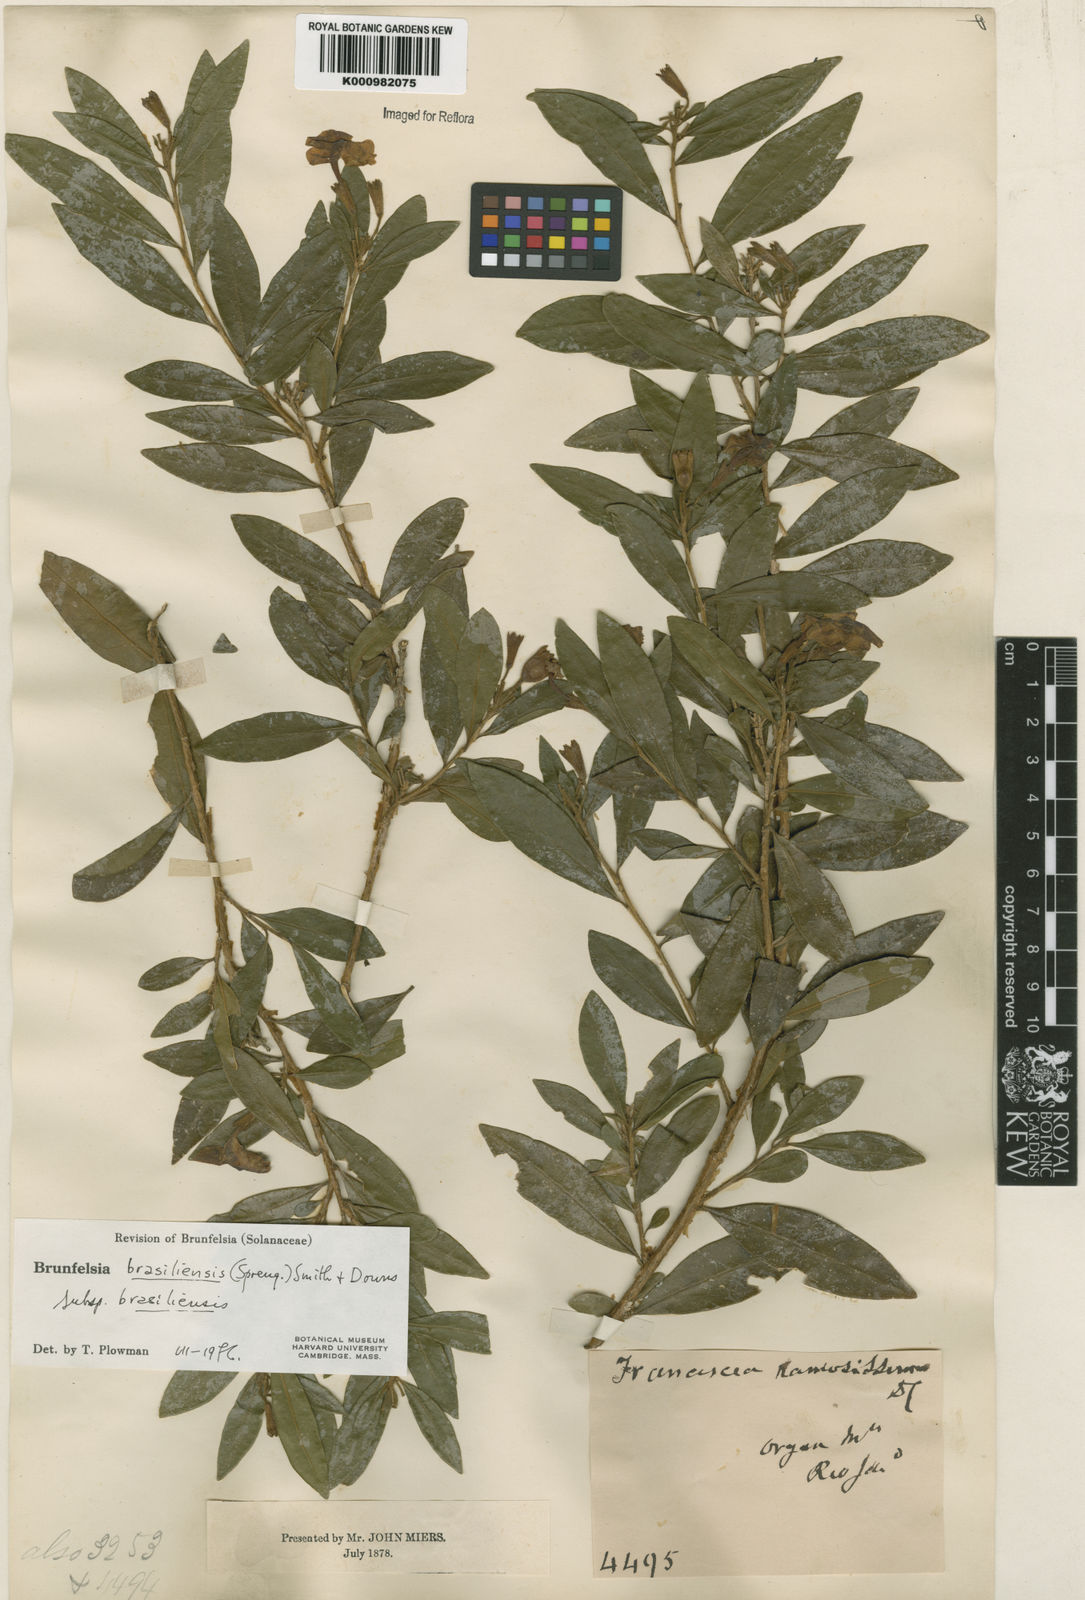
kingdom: Plantae
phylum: Tracheophyta
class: Magnoliopsida
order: Solanales
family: Solanaceae
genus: Brunfelsia
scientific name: Brunfelsia brasiliensis
